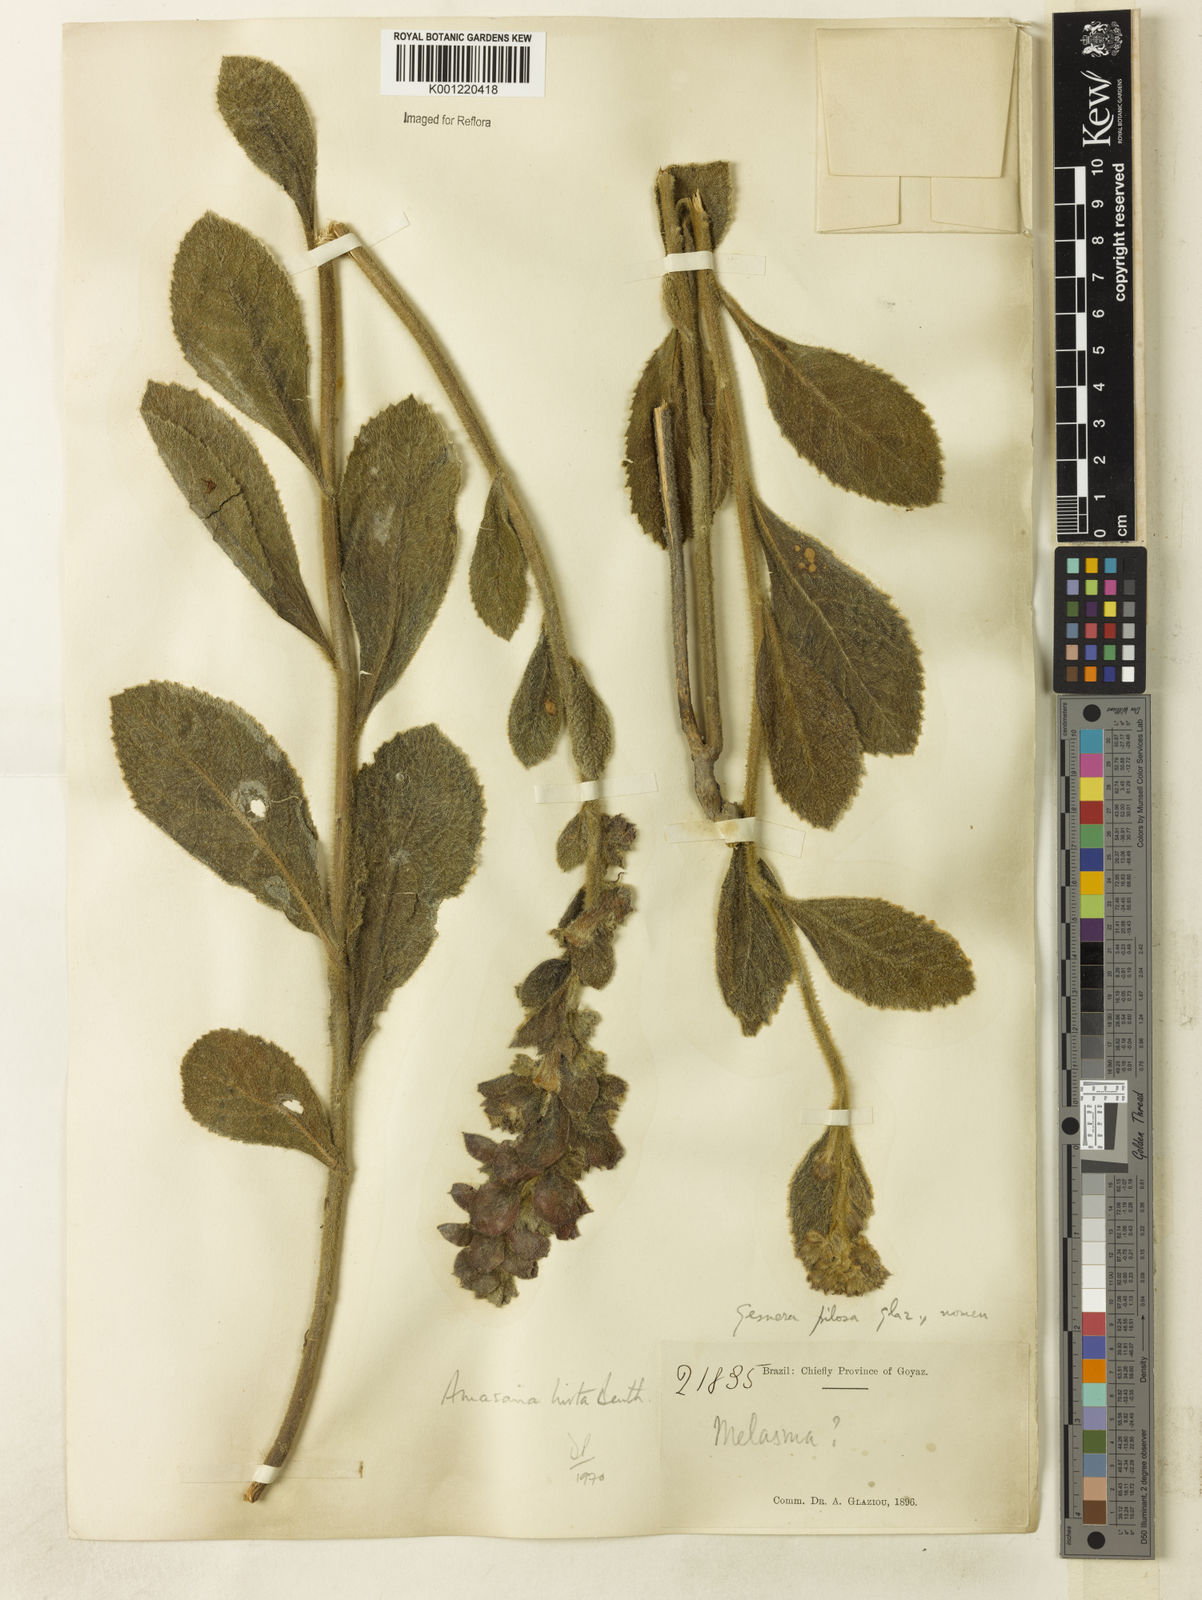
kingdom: Plantae
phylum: Tracheophyta
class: Magnoliopsida
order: Lamiales
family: Lamiaceae
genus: Amasonia
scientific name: Amasonia hirta
